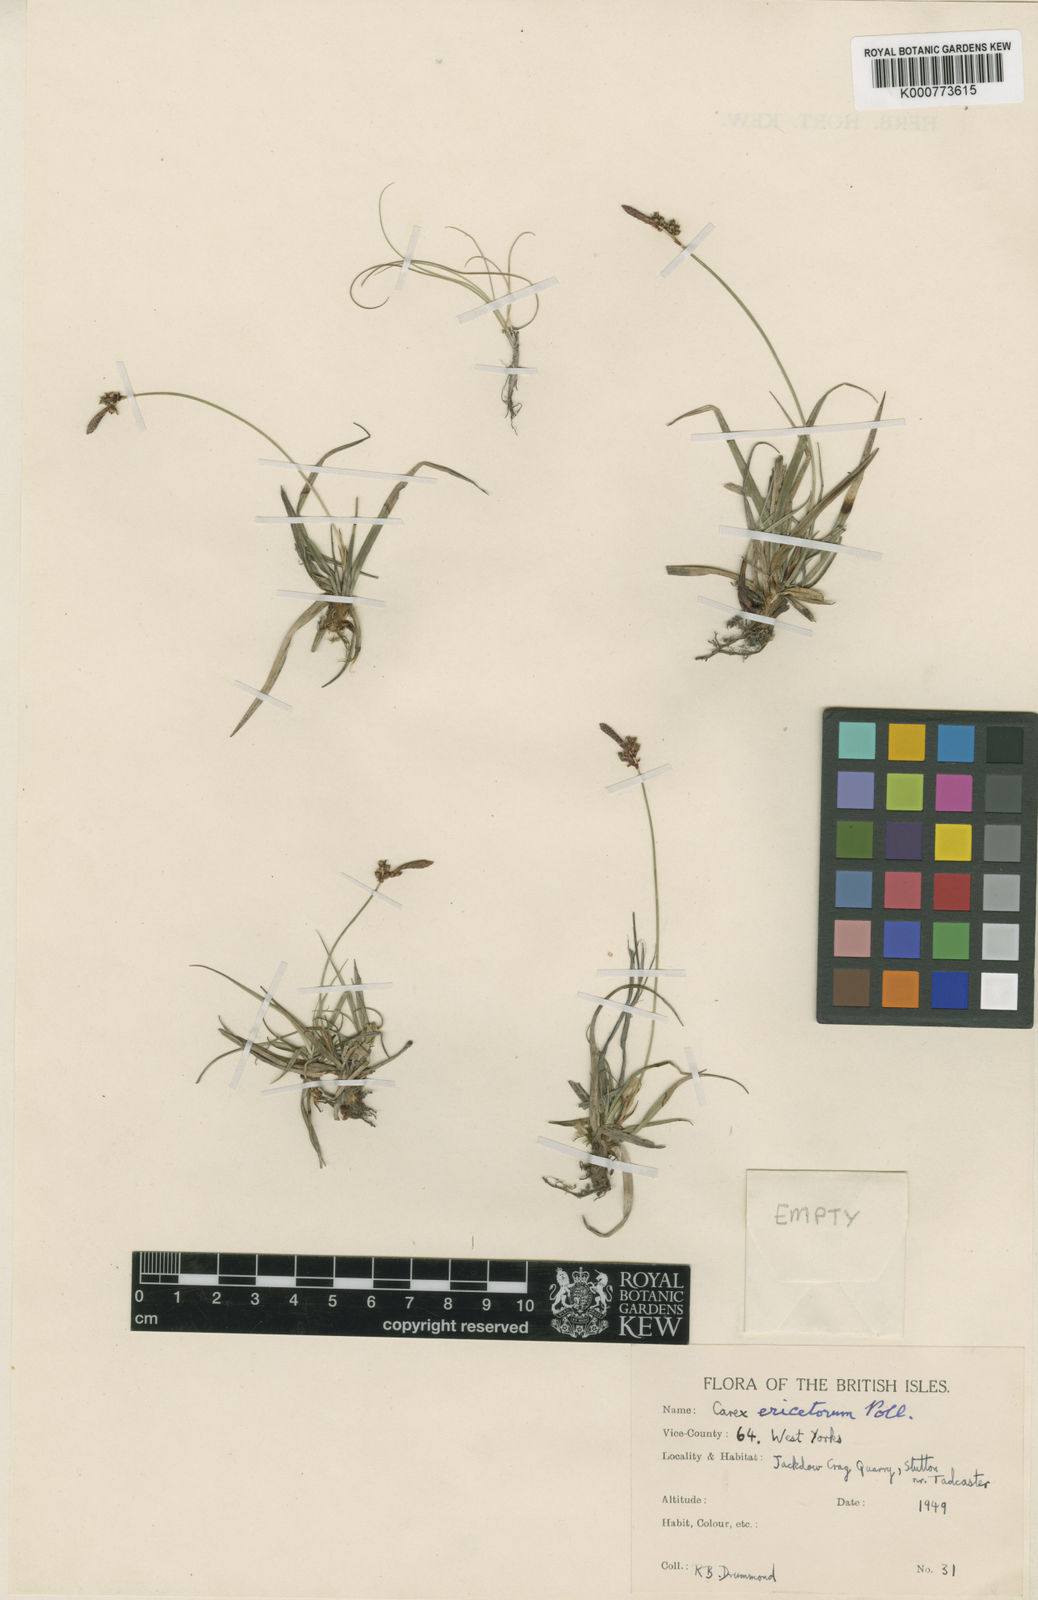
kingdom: Plantae
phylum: Tracheophyta
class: Liliopsida
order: Poales
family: Cyperaceae
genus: Carex
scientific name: Carex ericetorum
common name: Rare spring-sedge
